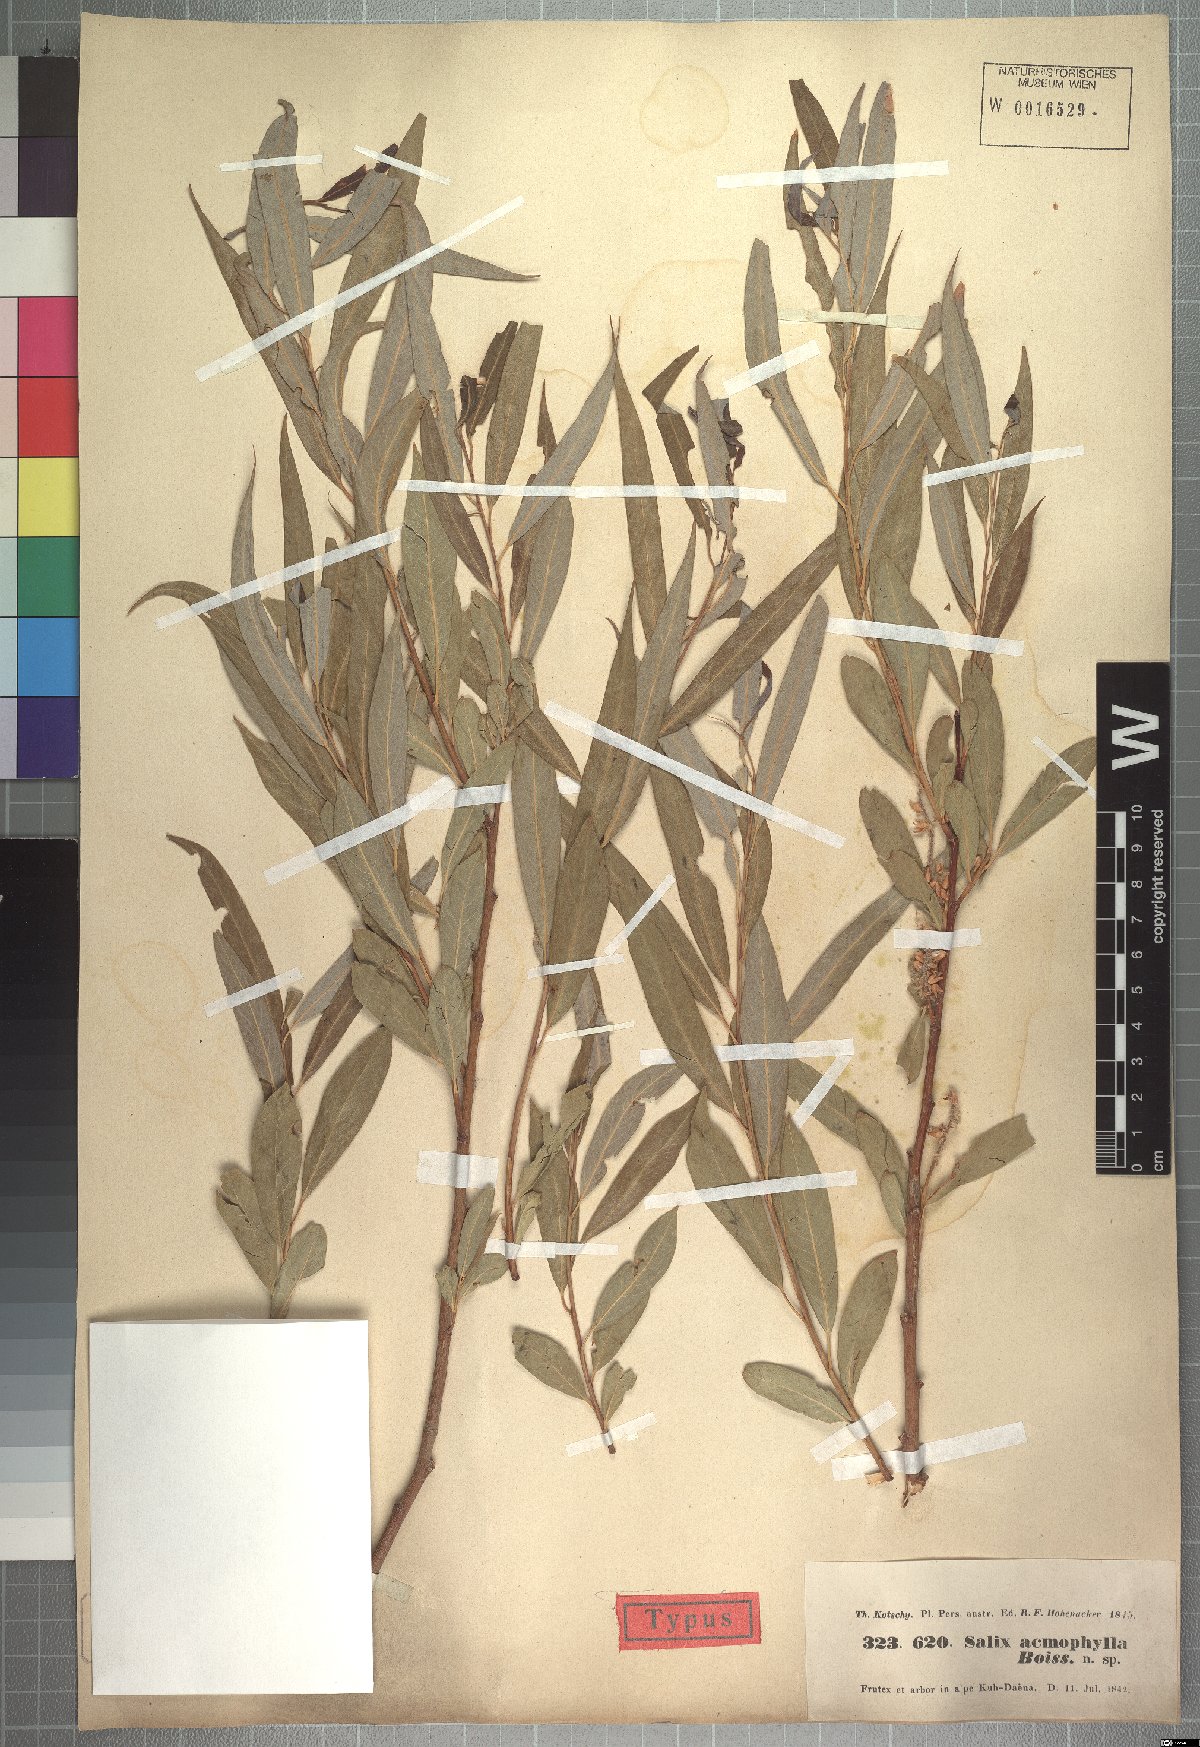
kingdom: Plantae
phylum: Tracheophyta
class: Magnoliopsida
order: Malpighiales
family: Salicaceae
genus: Salix
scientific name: Salix acmophylla
